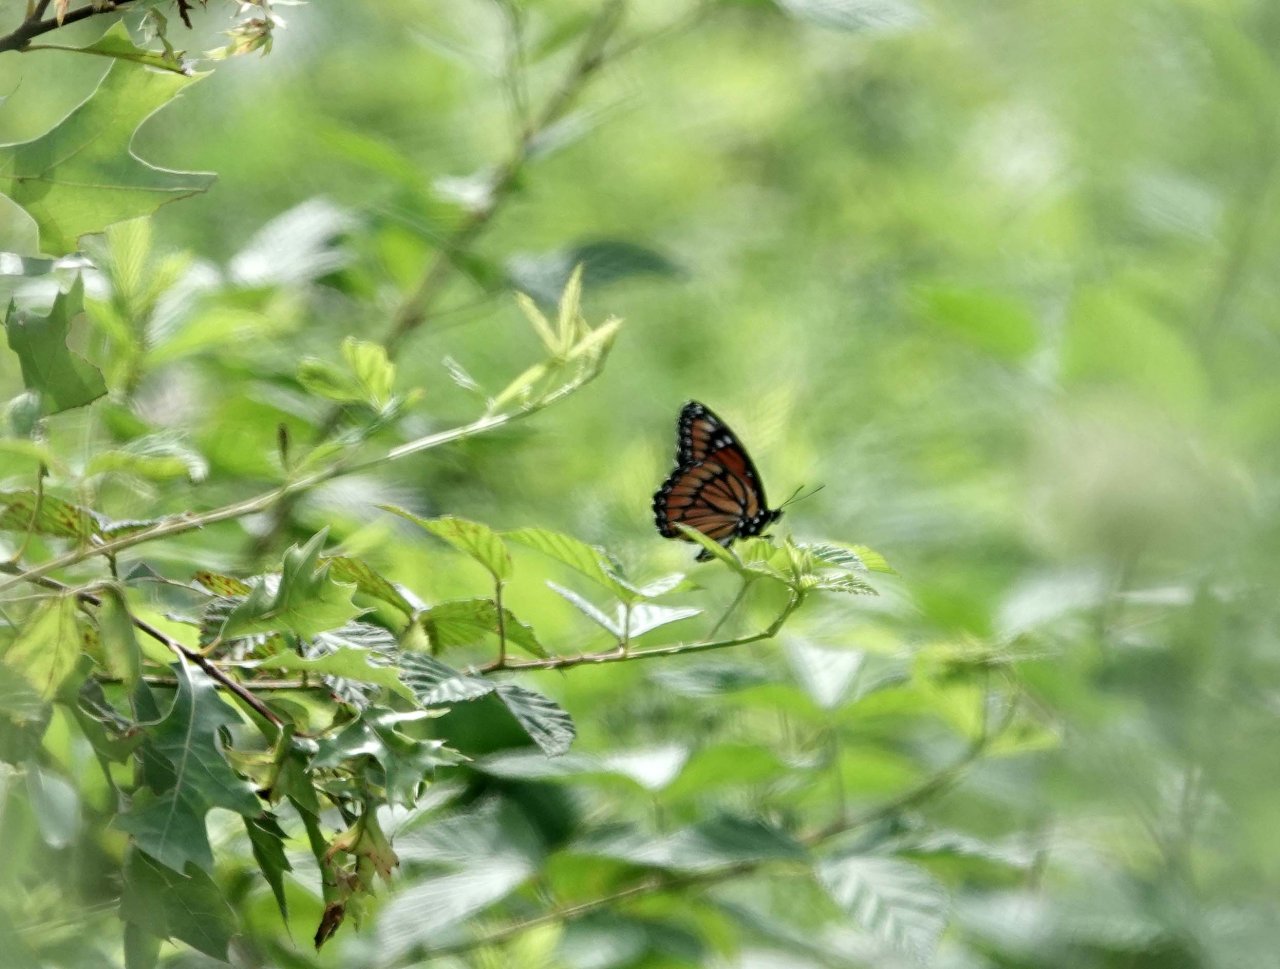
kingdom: Animalia
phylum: Arthropoda
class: Insecta
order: Lepidoptera
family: Nymphalidae
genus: Limenitis
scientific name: Limenitis archippus
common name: Viceroy
